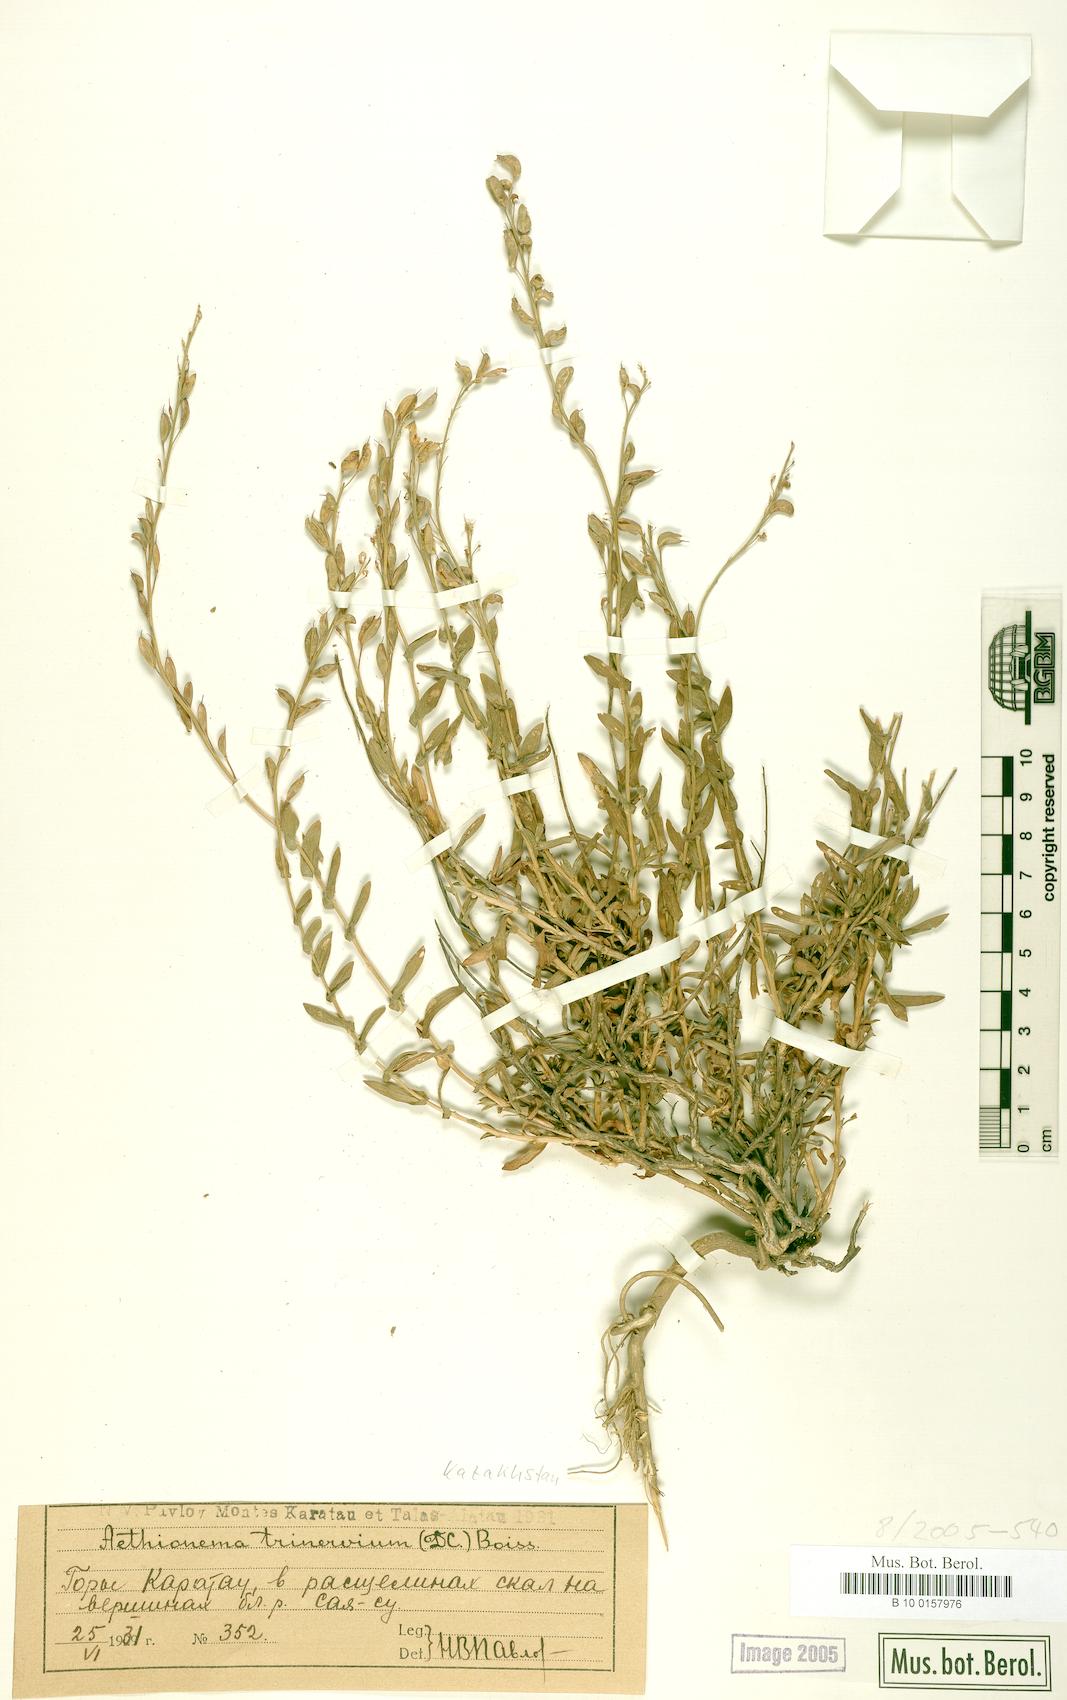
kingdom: Plantae
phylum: Tracheophyta
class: Magnoliopsida
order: Brassicales
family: Brassicaceae
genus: Noccaea
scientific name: Noccaea trinervia
